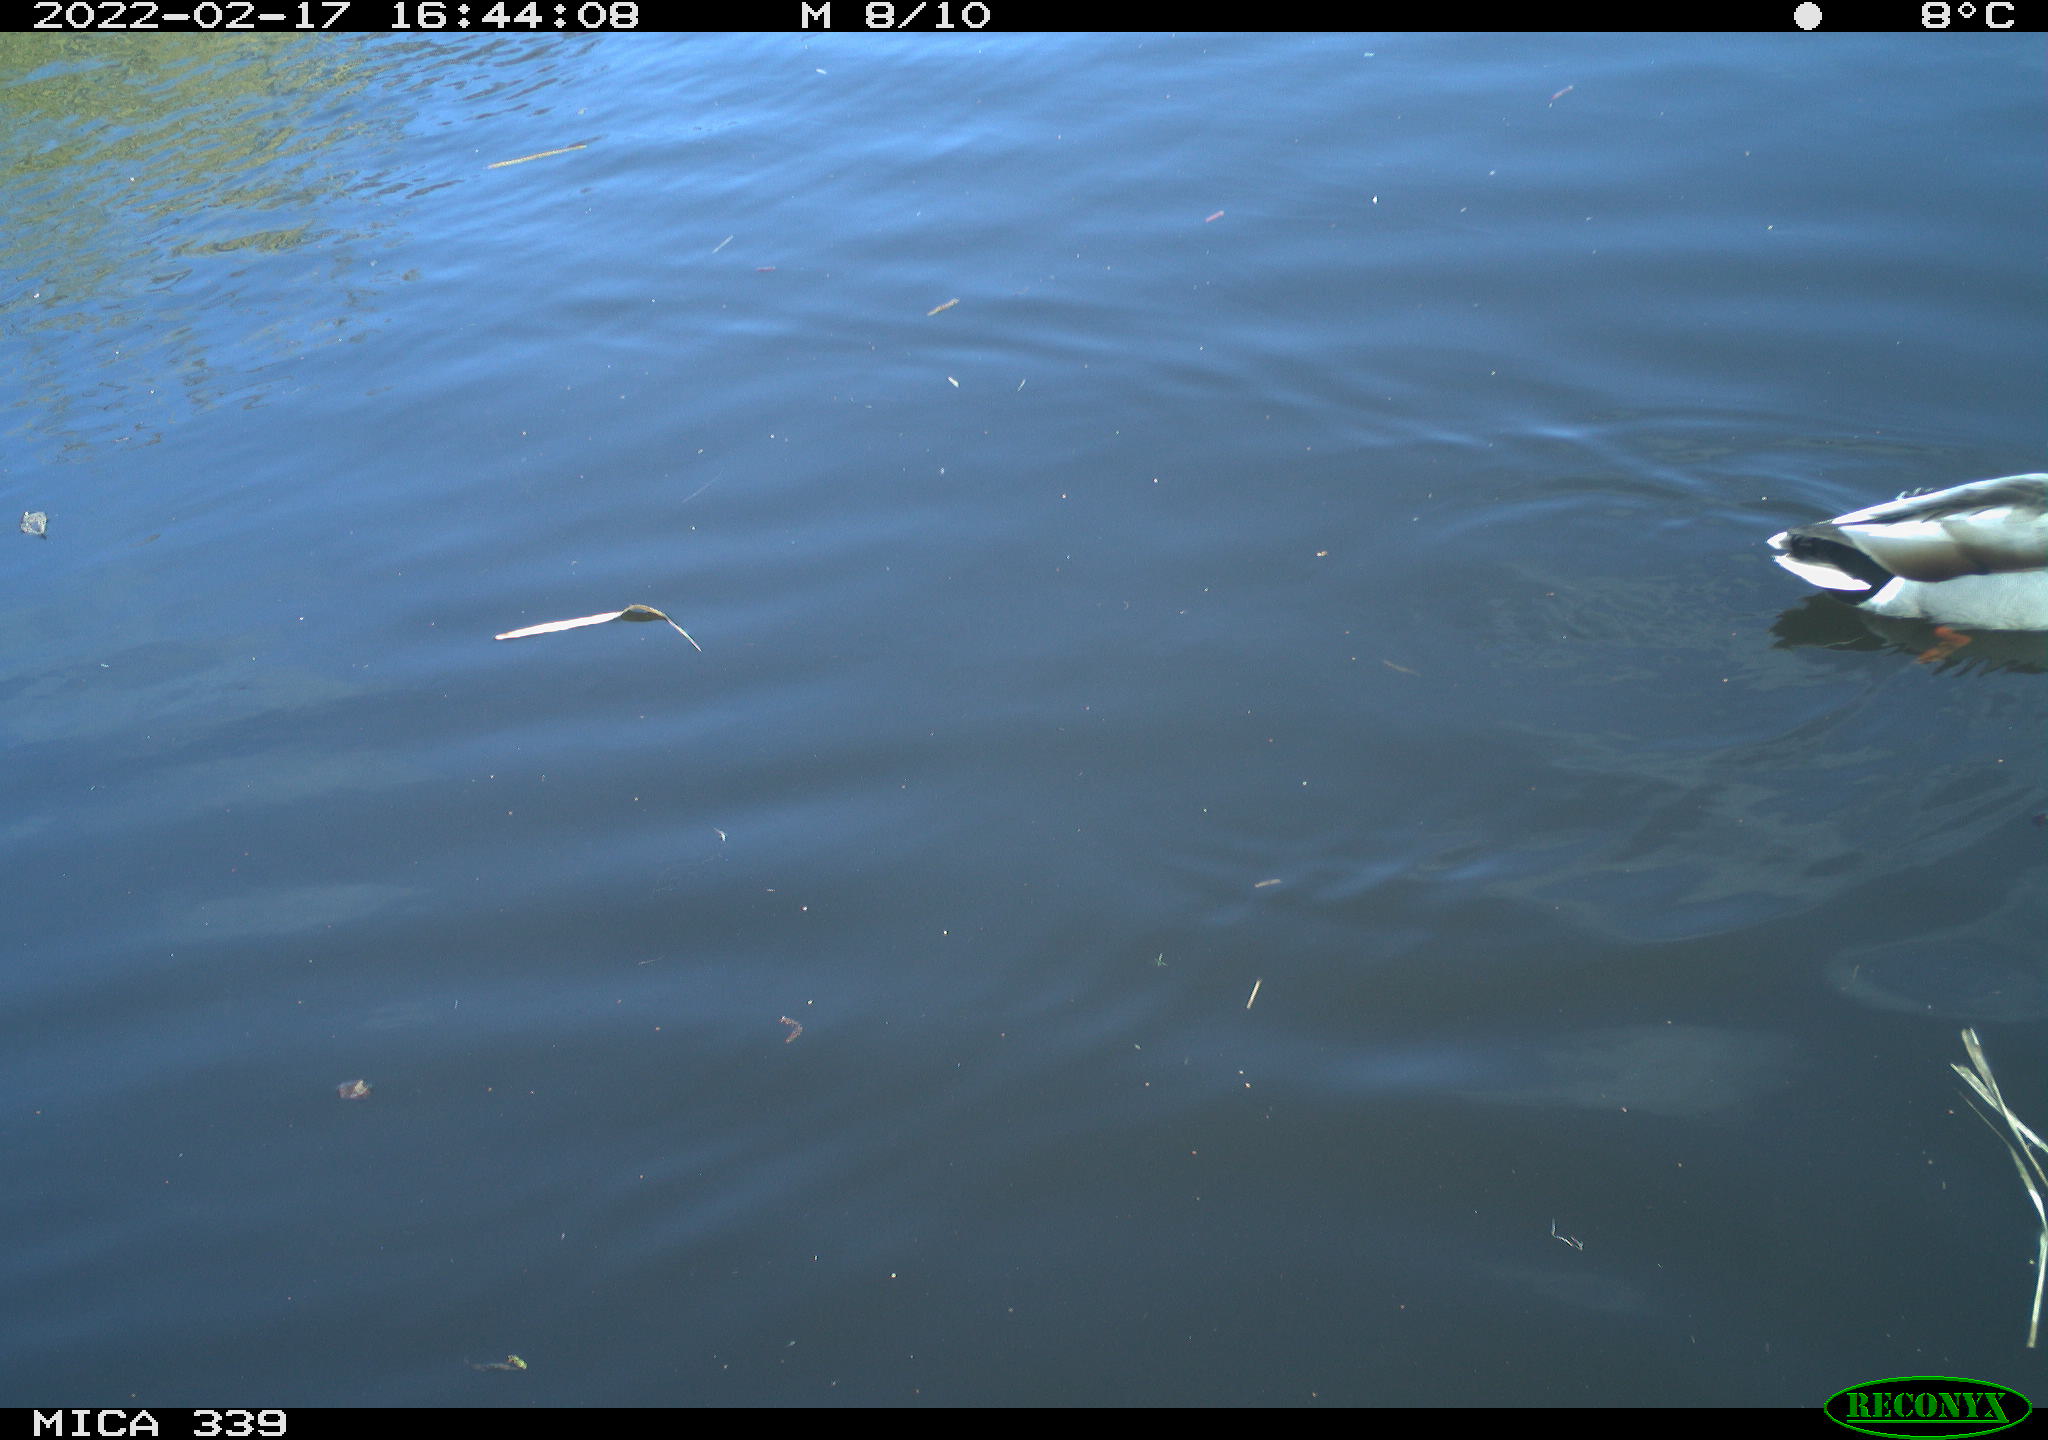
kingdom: Animalia
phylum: Chordata
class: Aves
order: Anseriformes
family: Anatidae
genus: Anas
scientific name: Anas platyrhynchos
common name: Mallard
